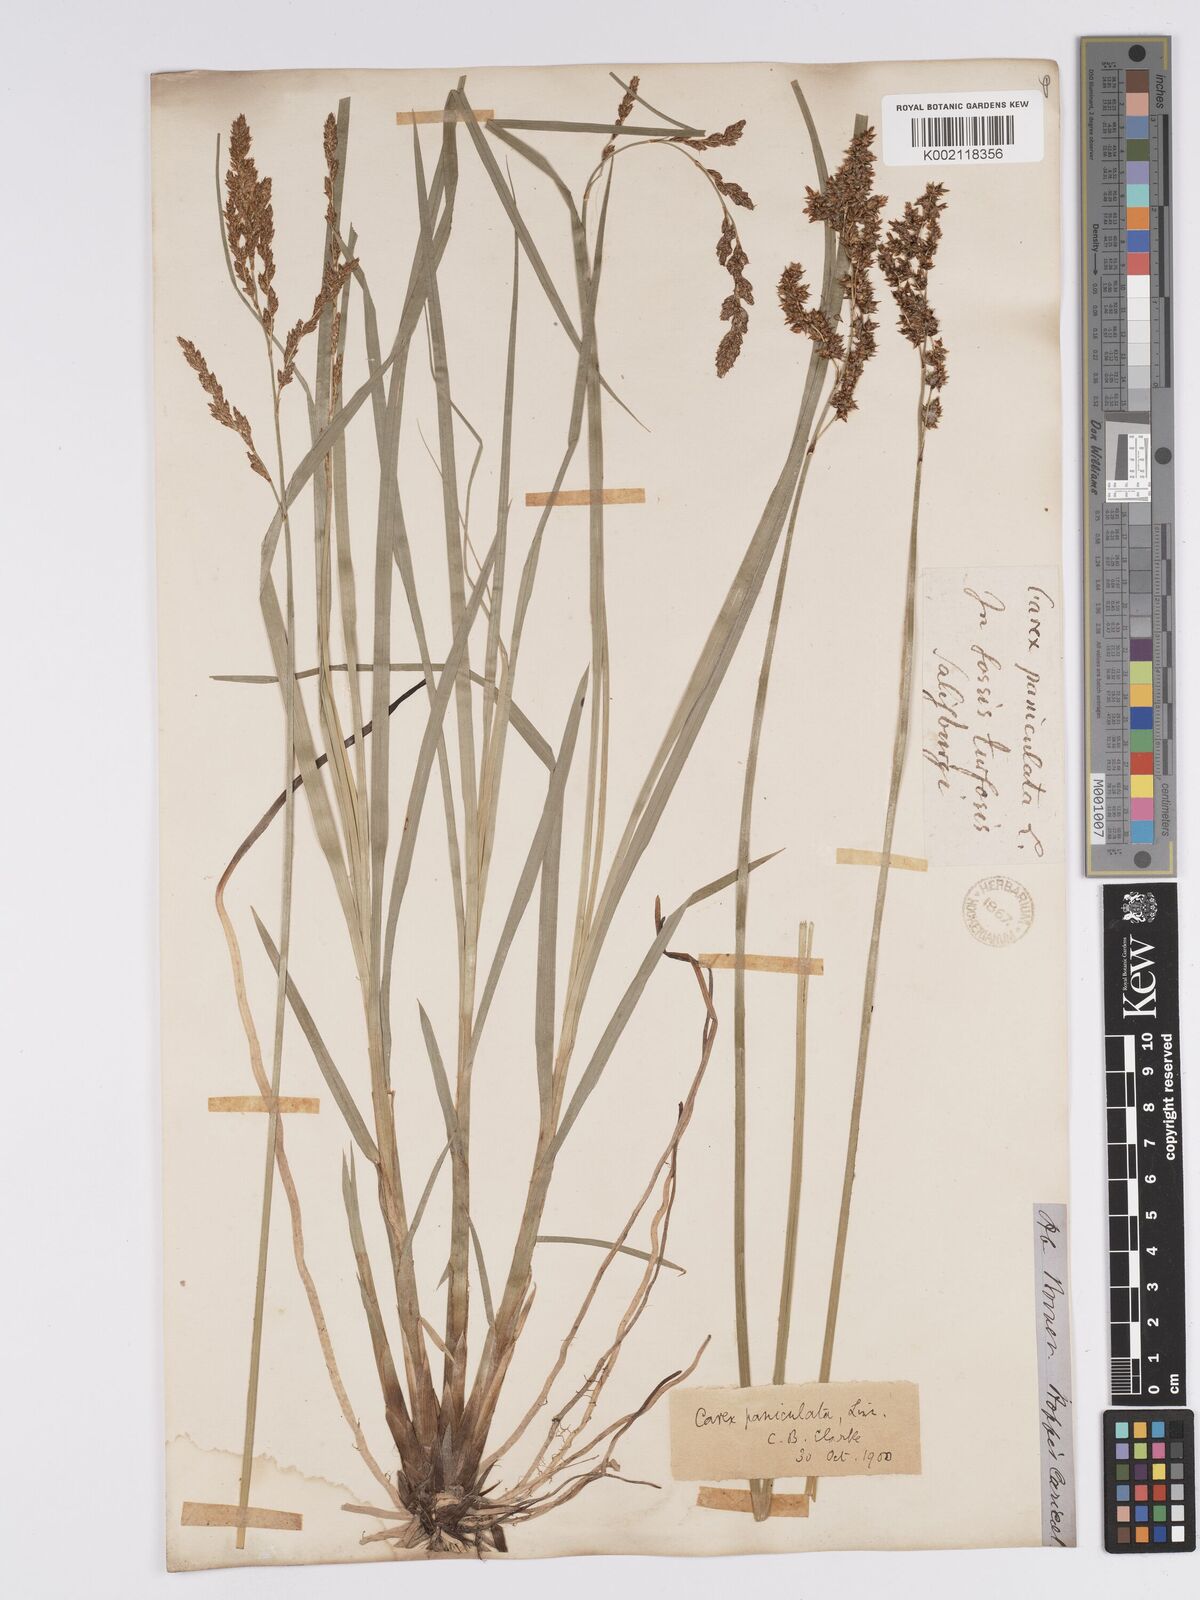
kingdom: Plantae
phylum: Tracheophyta
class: Liliopsida
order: Poales
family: Cyperaceae
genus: Carex
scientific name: Carex paniculata
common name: Greater tussock-sedge
